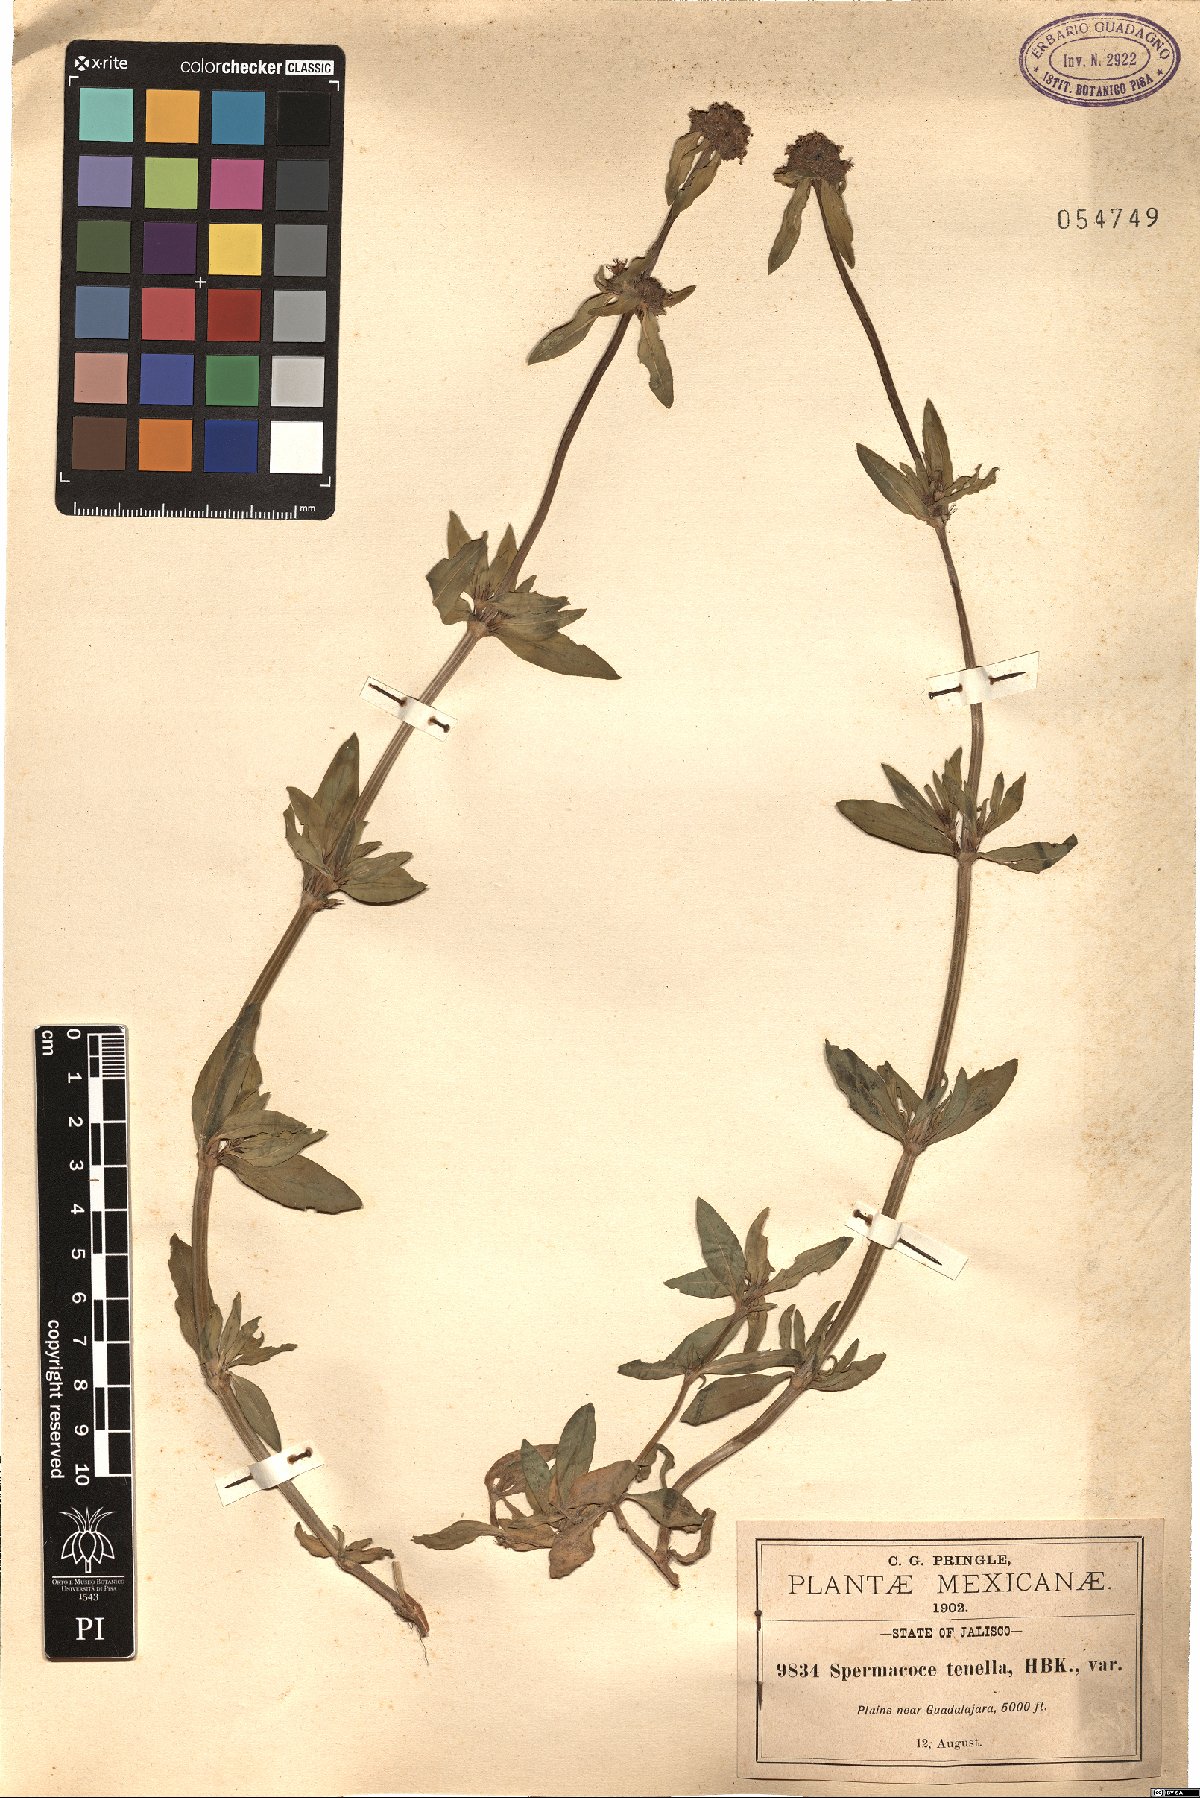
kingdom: Plantae
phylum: Tracheophyta
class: Magnoliopsida
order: Gentianales
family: Rubiaceae
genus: Spermacoce
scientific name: Spermacoce orinocensis
